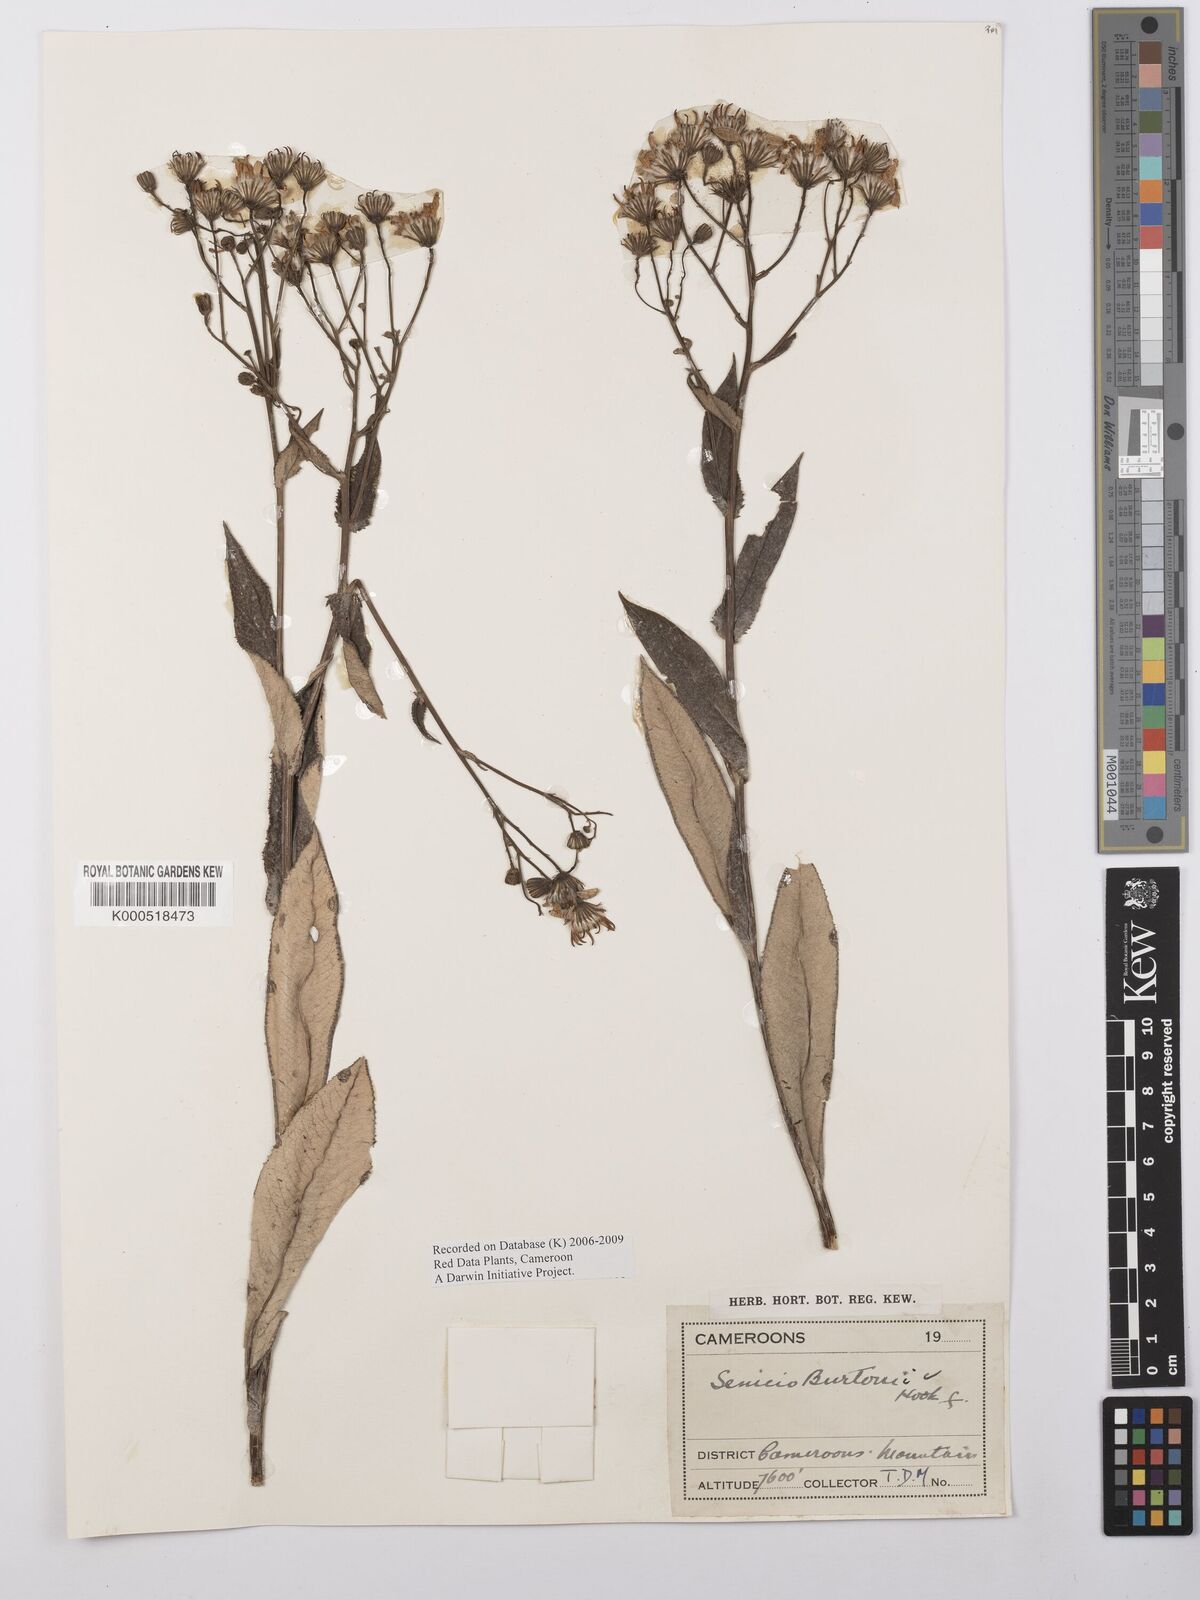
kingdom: Plantae
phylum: Tracheophyta
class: Magnoliopsida
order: Asterales
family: Asteraceae
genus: Senecio
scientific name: Senecio burtonii
